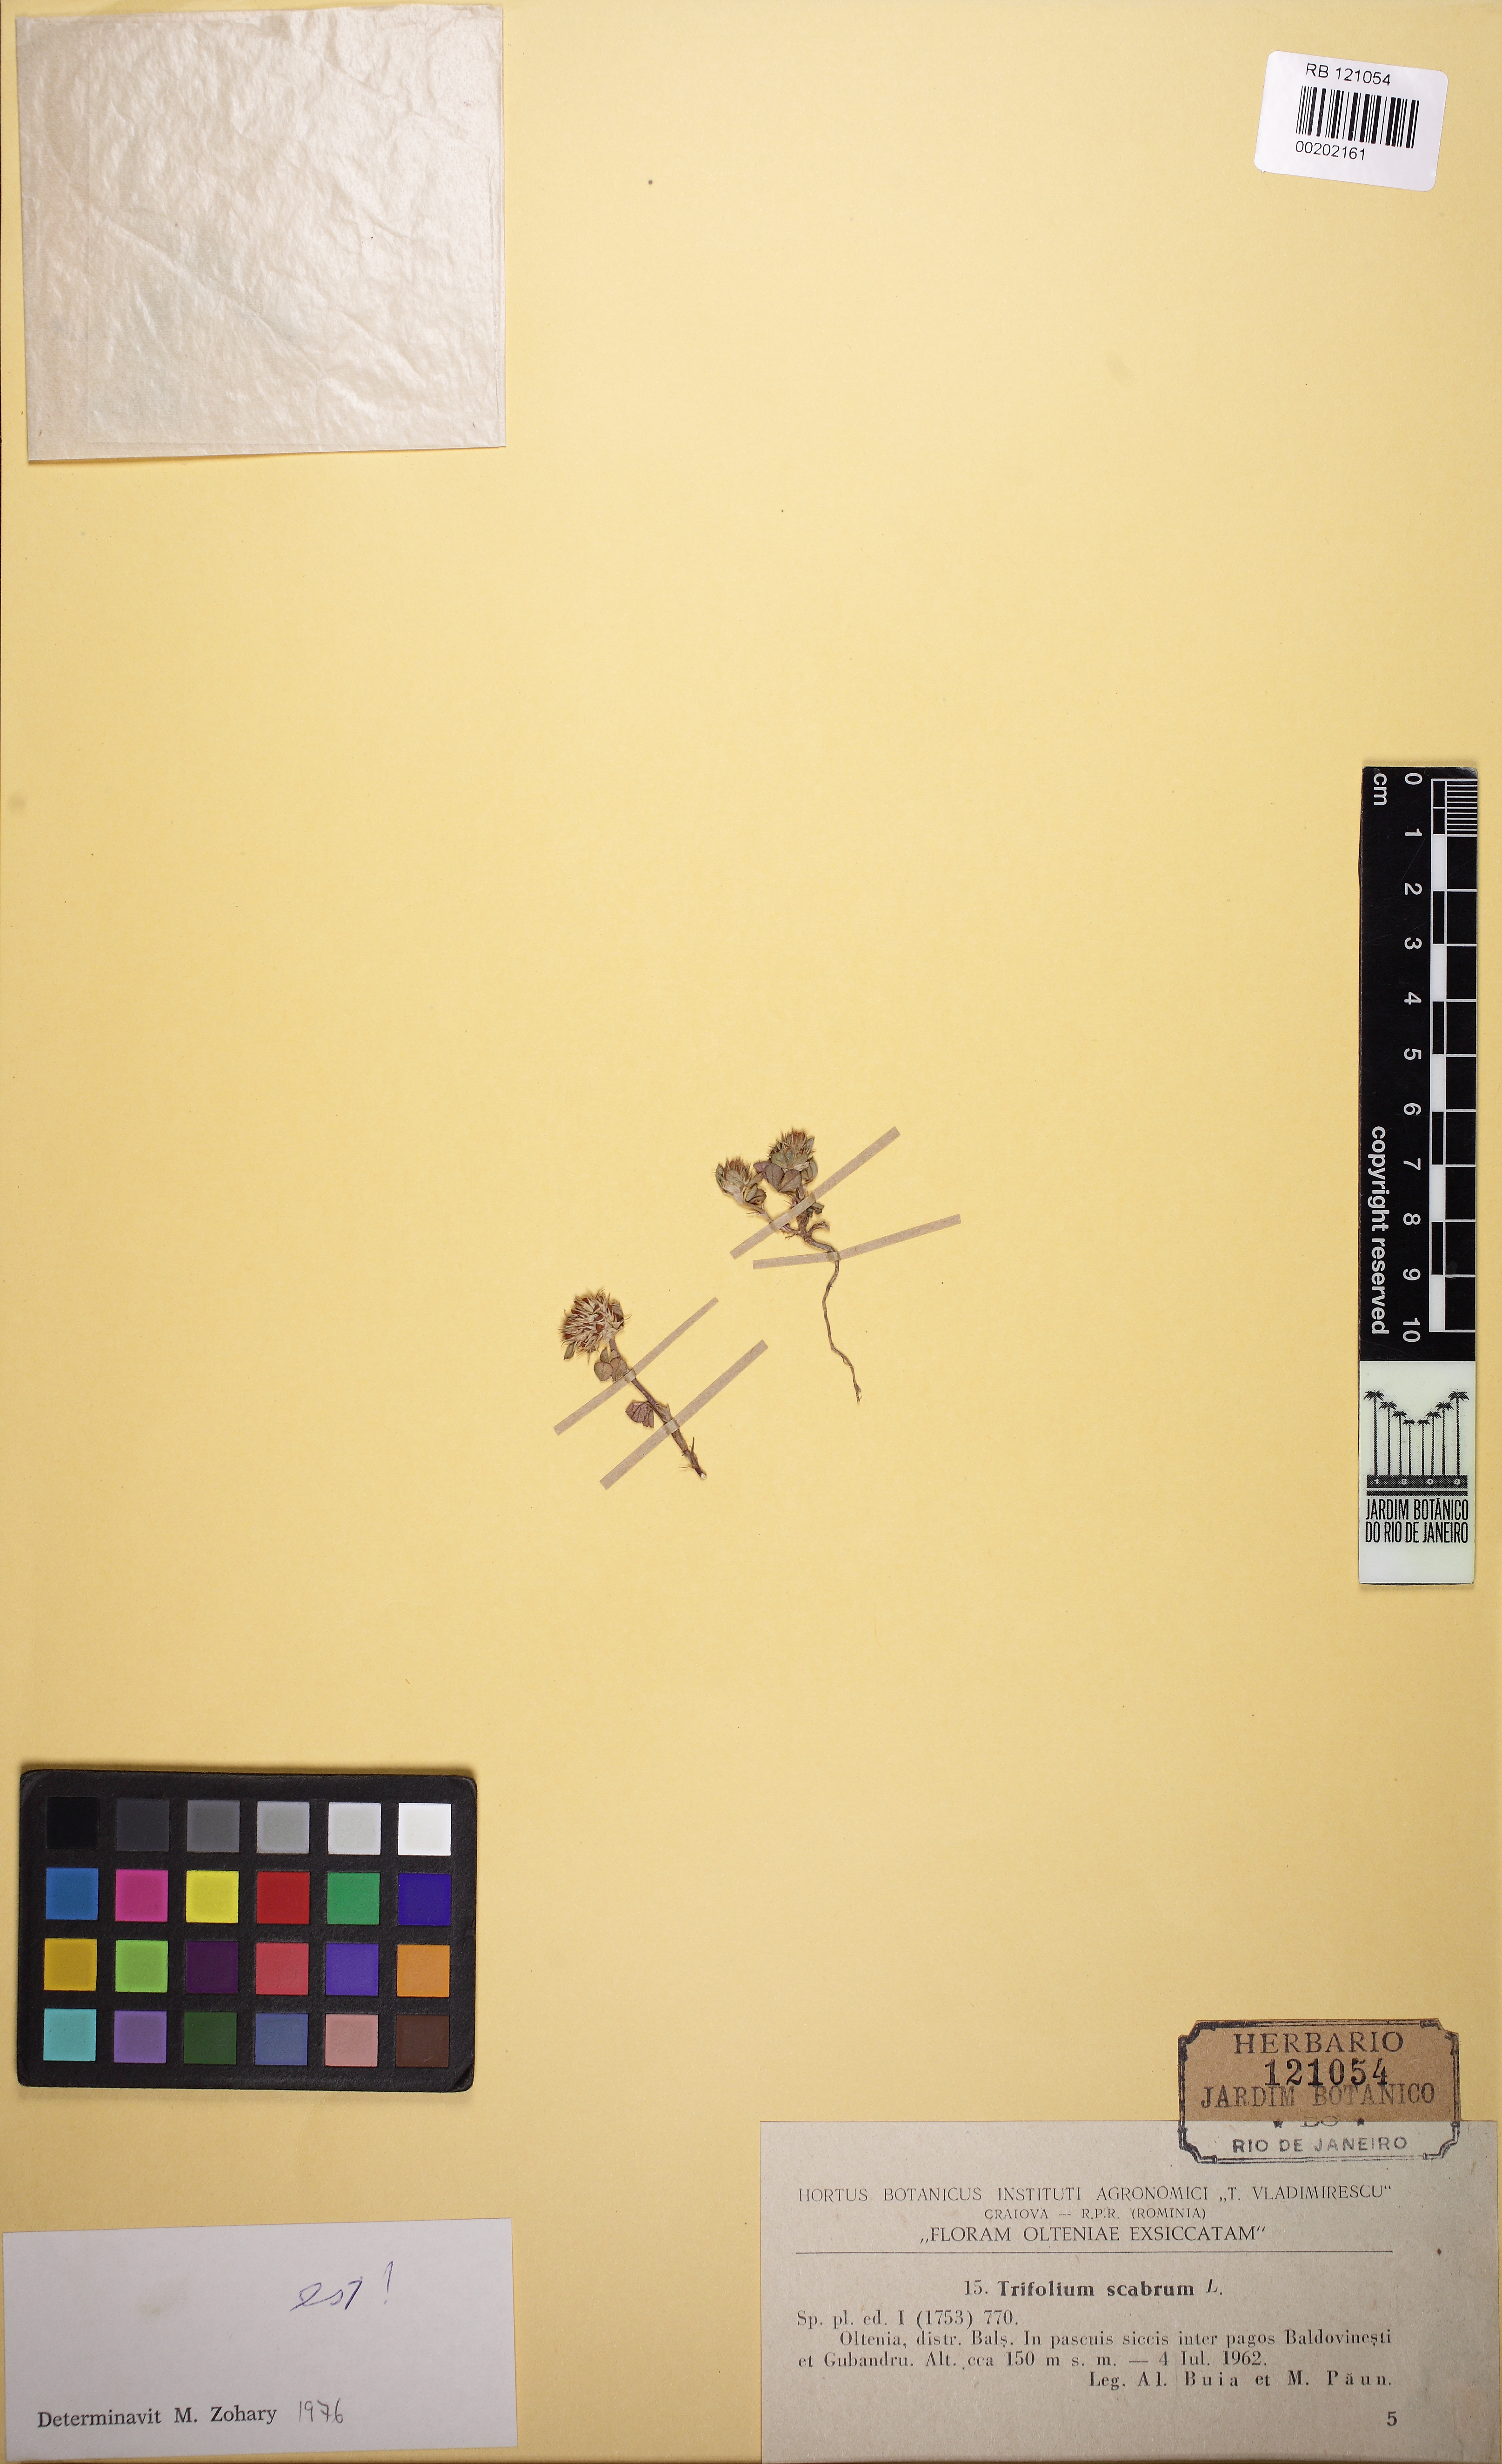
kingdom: Plantae
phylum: Tracheophyta
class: Magnoliopsida
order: Fabales
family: Fabaceae
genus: Trifolium
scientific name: Trifolium scabrum
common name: Rough clover
